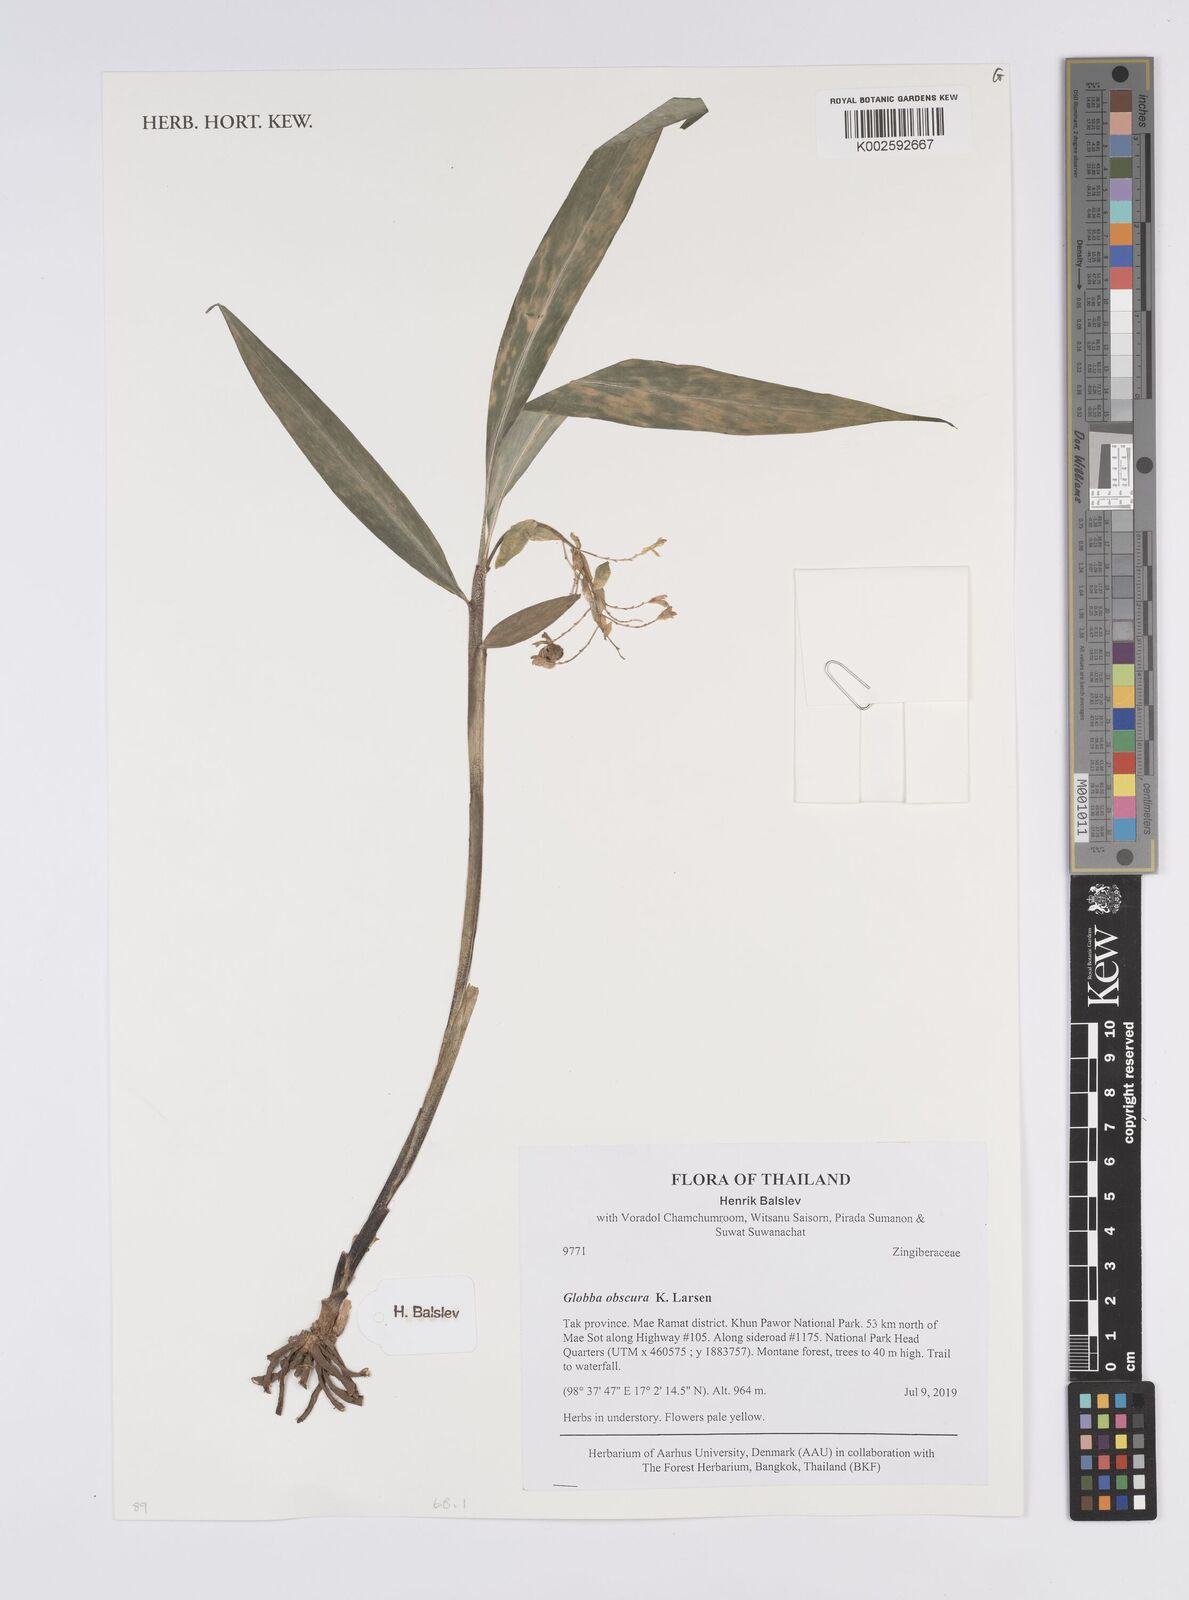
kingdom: Plantae
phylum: Tracheophyta
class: Liliopsida
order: Zingiberales
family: Zingiberaceae
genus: Globba
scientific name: Globba obscura
